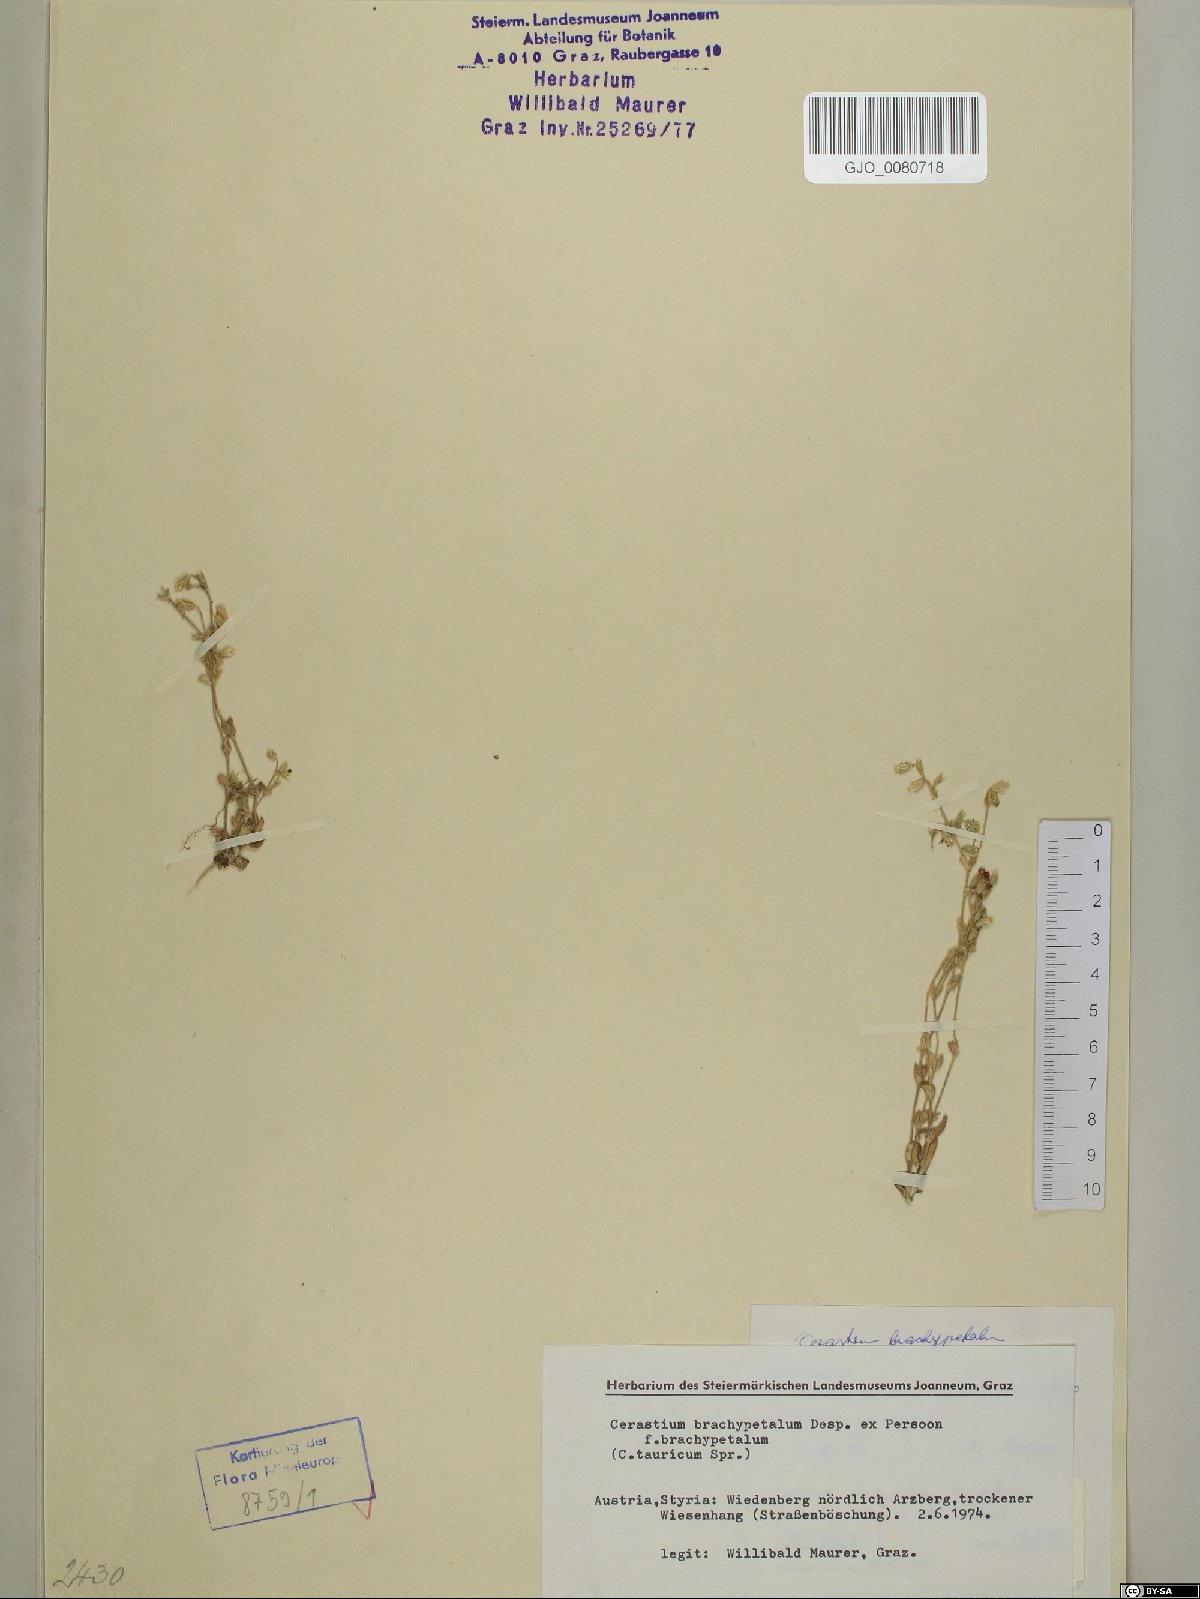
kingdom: Plantae
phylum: Tracheophyta
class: Magnoliopsida
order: Caryophyllales
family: Caryophyllaceae
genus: Cerastium
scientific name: Cerastium brachypetalum
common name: Grey mouse-ear
